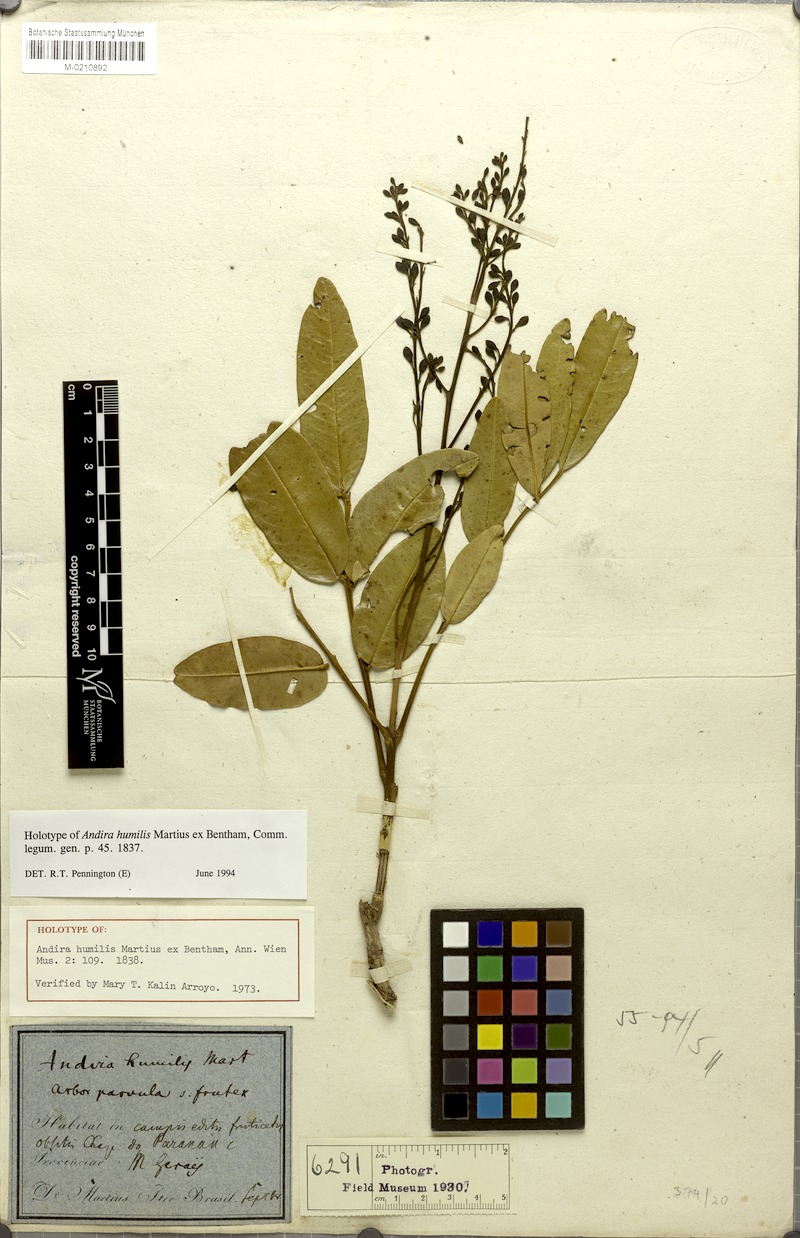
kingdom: Plantae
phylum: Tracheophyta
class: Magnoliopsida
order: Fabales
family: Fabaceae
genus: Andira
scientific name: Andira humilis
